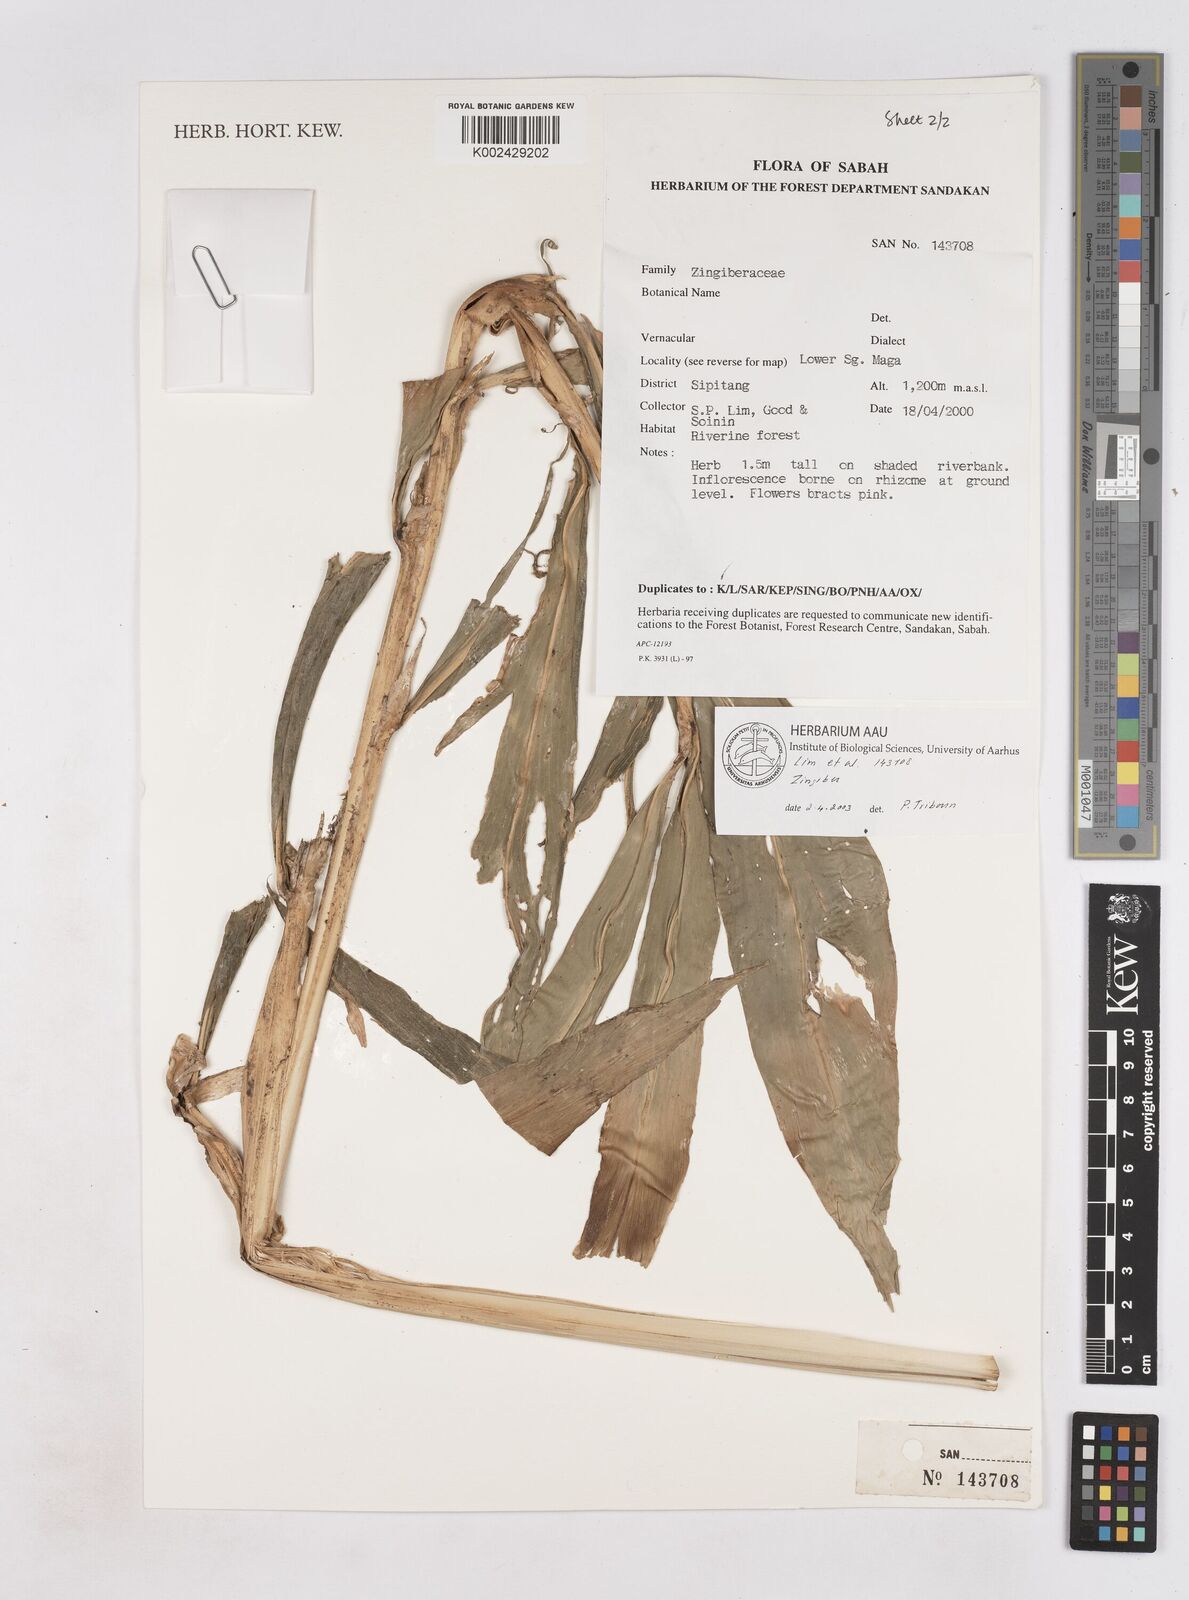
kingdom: Plantae
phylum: Tracheophyta
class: Liliopsida
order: Zingiberales
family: Zingiberaceae
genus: Zingiber
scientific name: Zingiber
